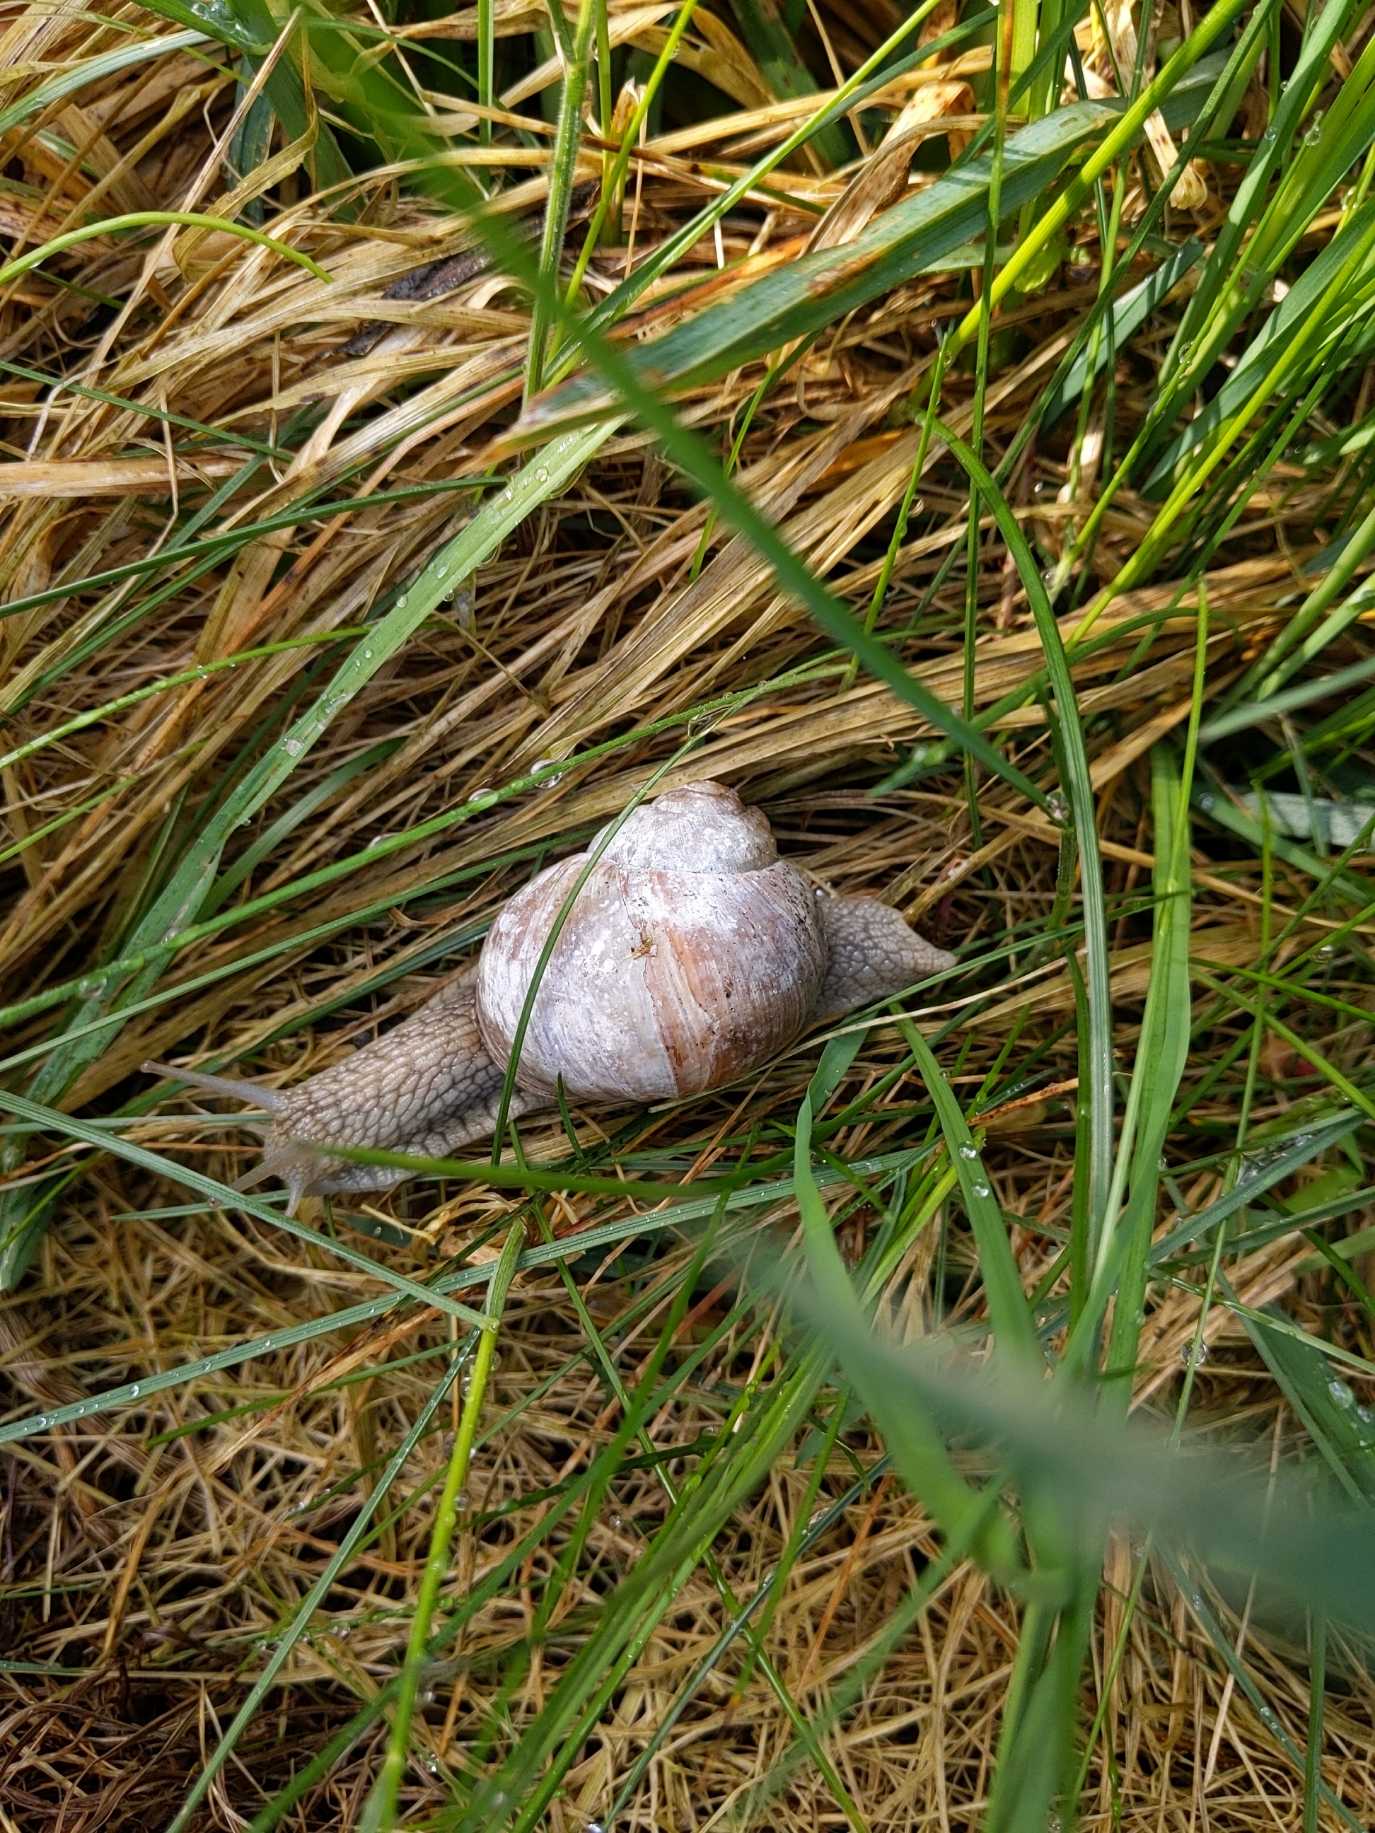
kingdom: Animalia
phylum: Mollusca
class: Gastropoda
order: Stylommatophora
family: Helicidae
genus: Helix
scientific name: Helix pomatia
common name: Vinbjergsnegl
